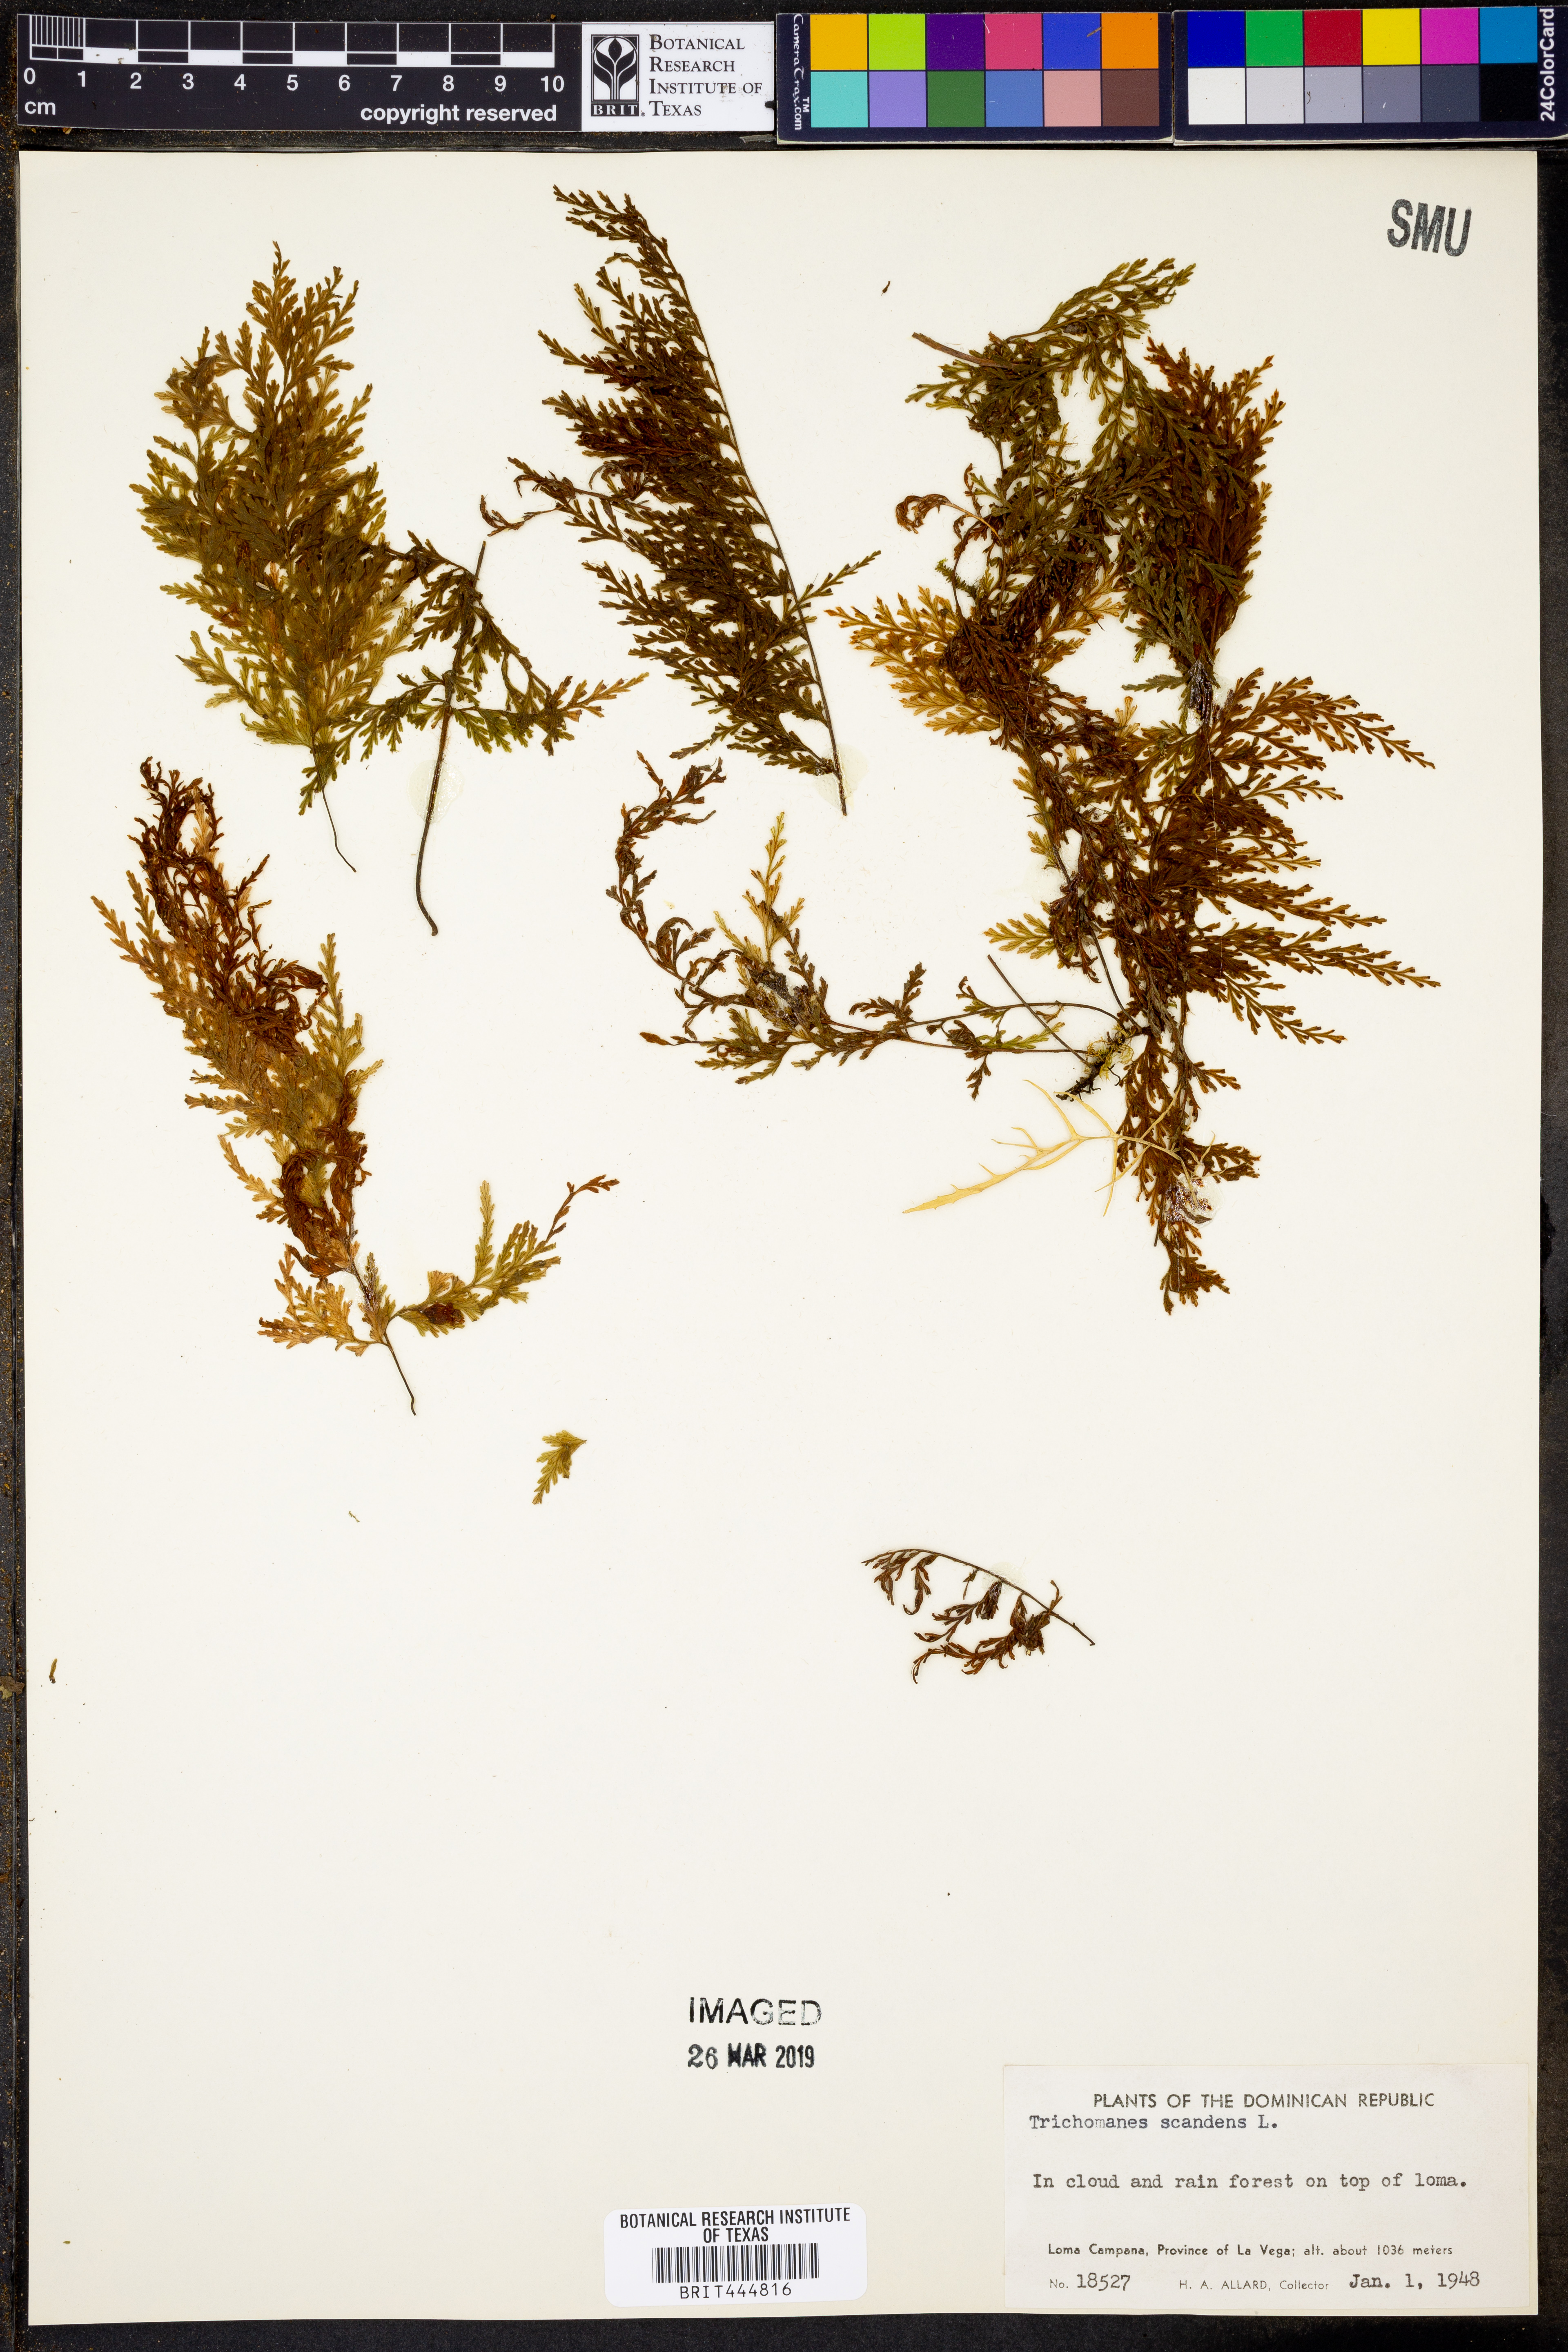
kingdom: Plantae
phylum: Tracheophyta
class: Polypodiopsida
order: Hymenophyllales
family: Hymenophyllaceae
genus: Trichomanes
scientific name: Trichomanes scandens
